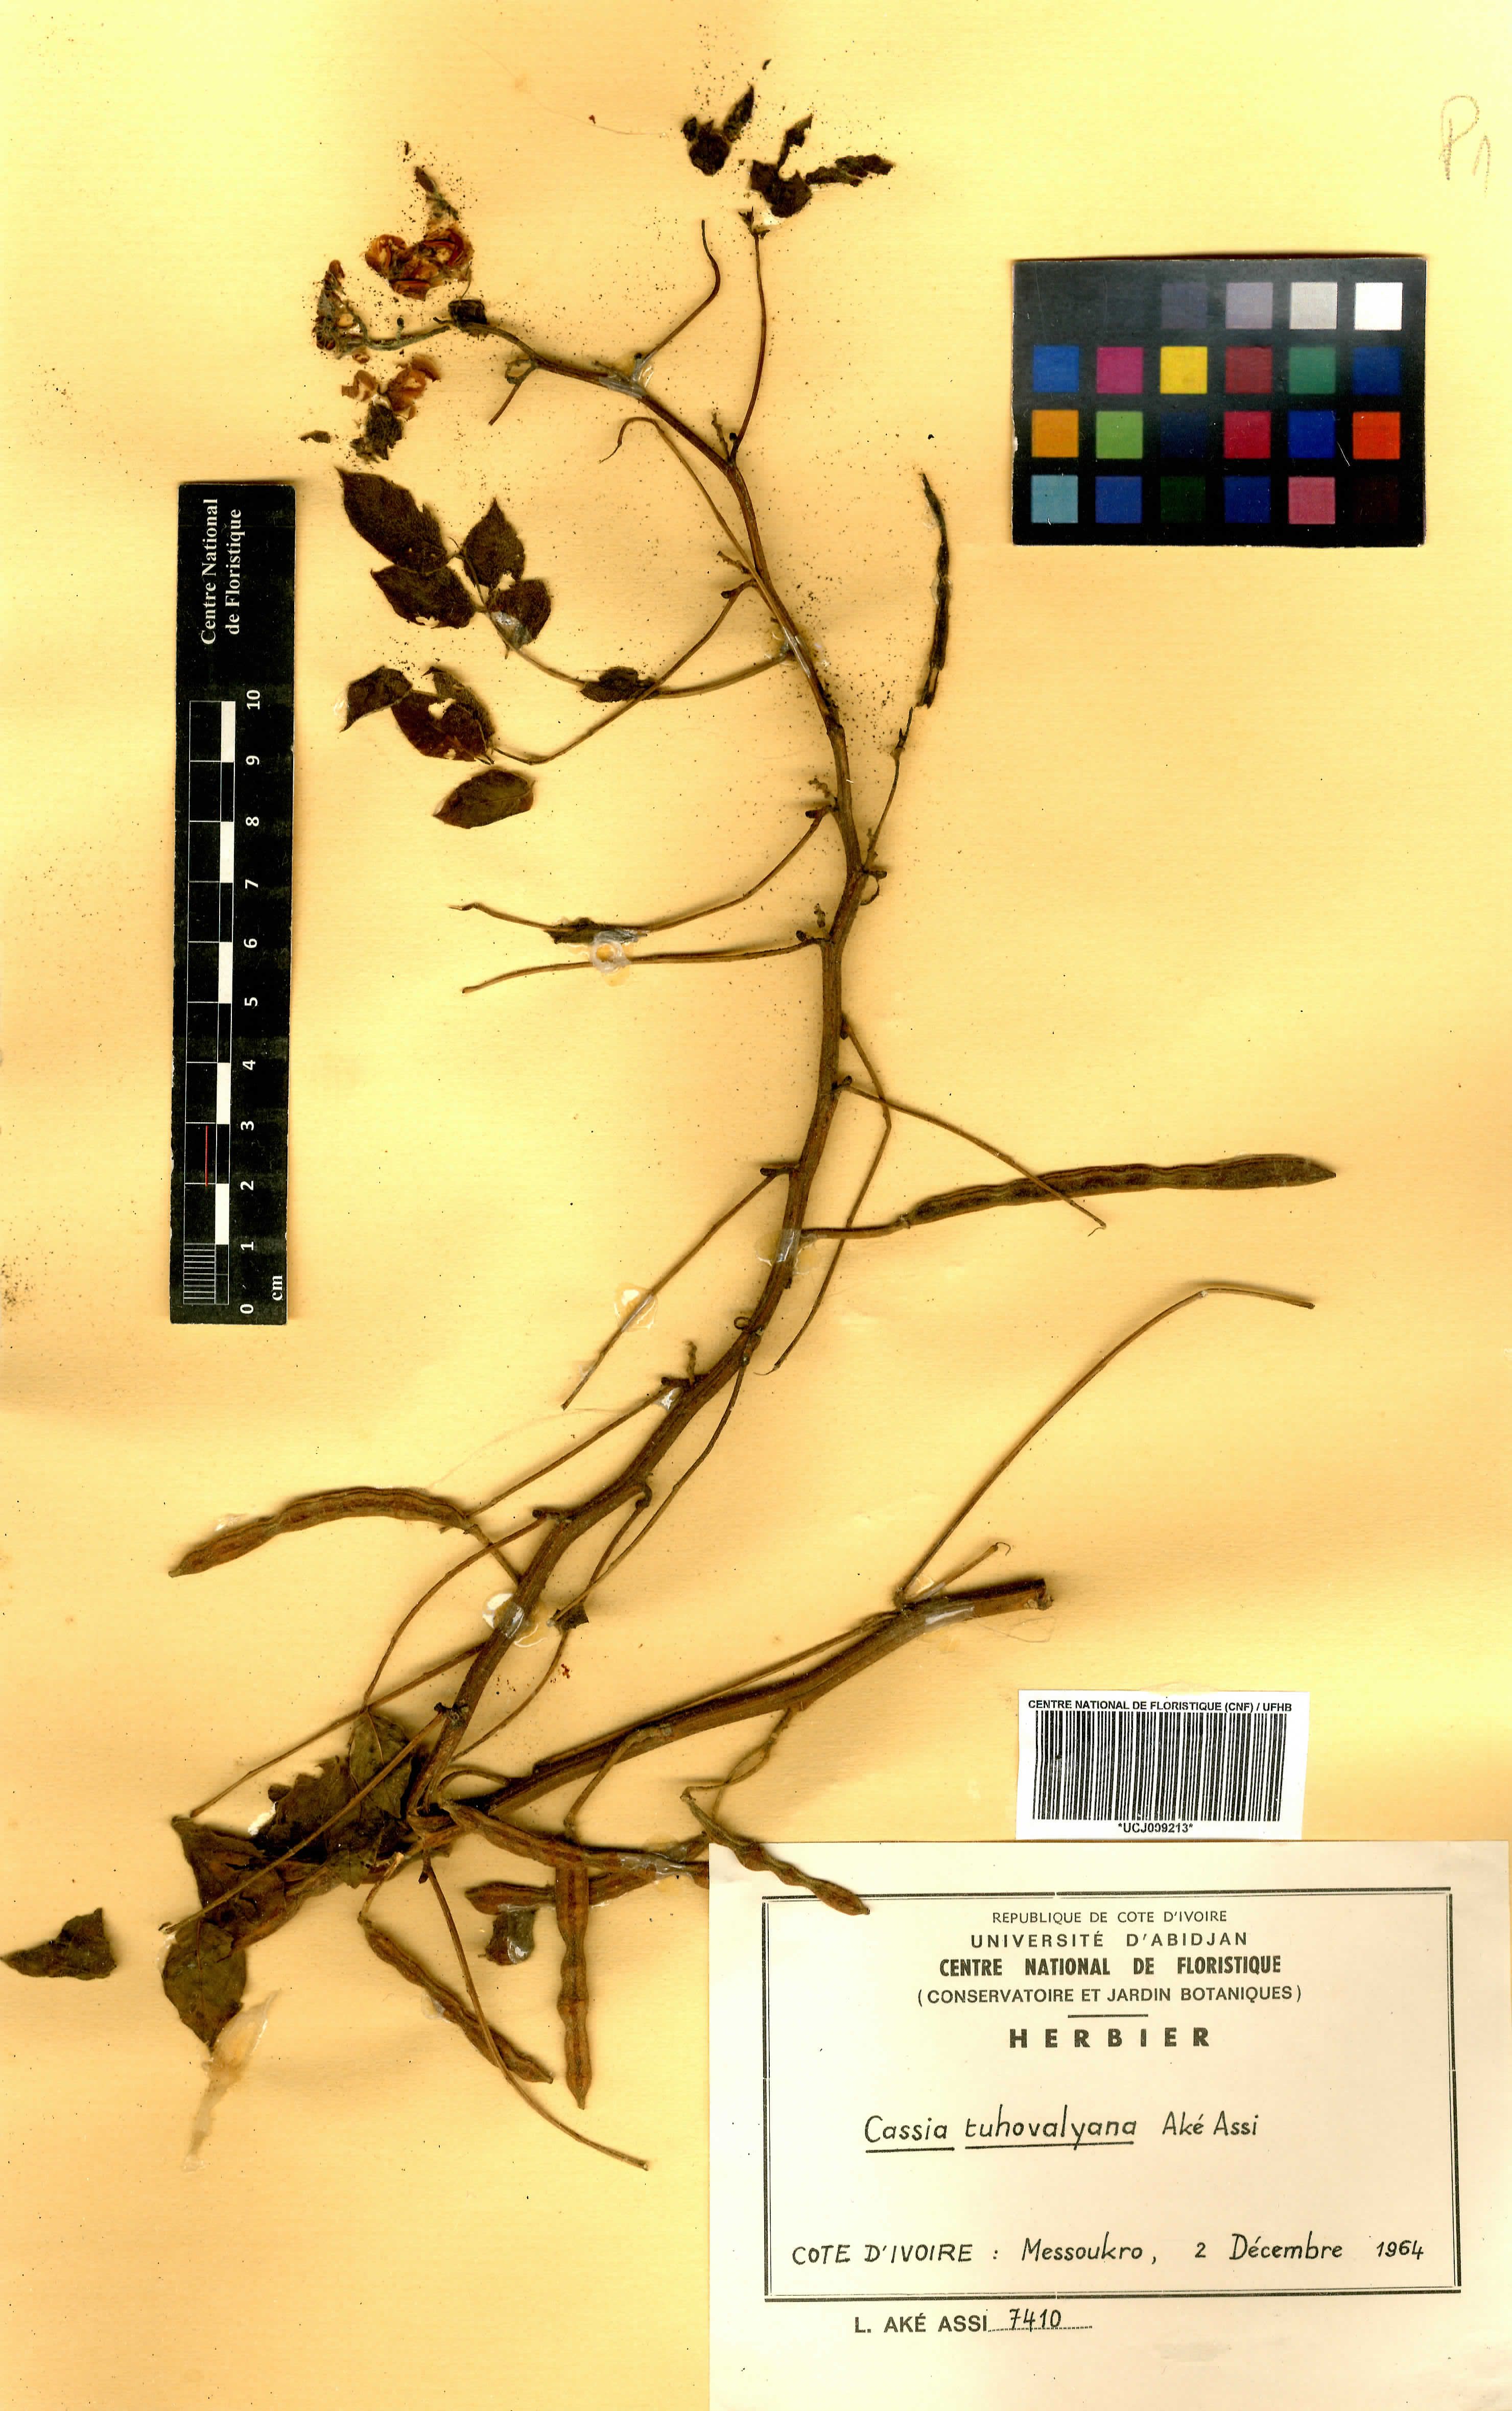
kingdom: Plantae
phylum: Tracheophyta
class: Magnoliopsida
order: Fabales
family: Fabaceae
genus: Senna
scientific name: Senna tuhovalyana
